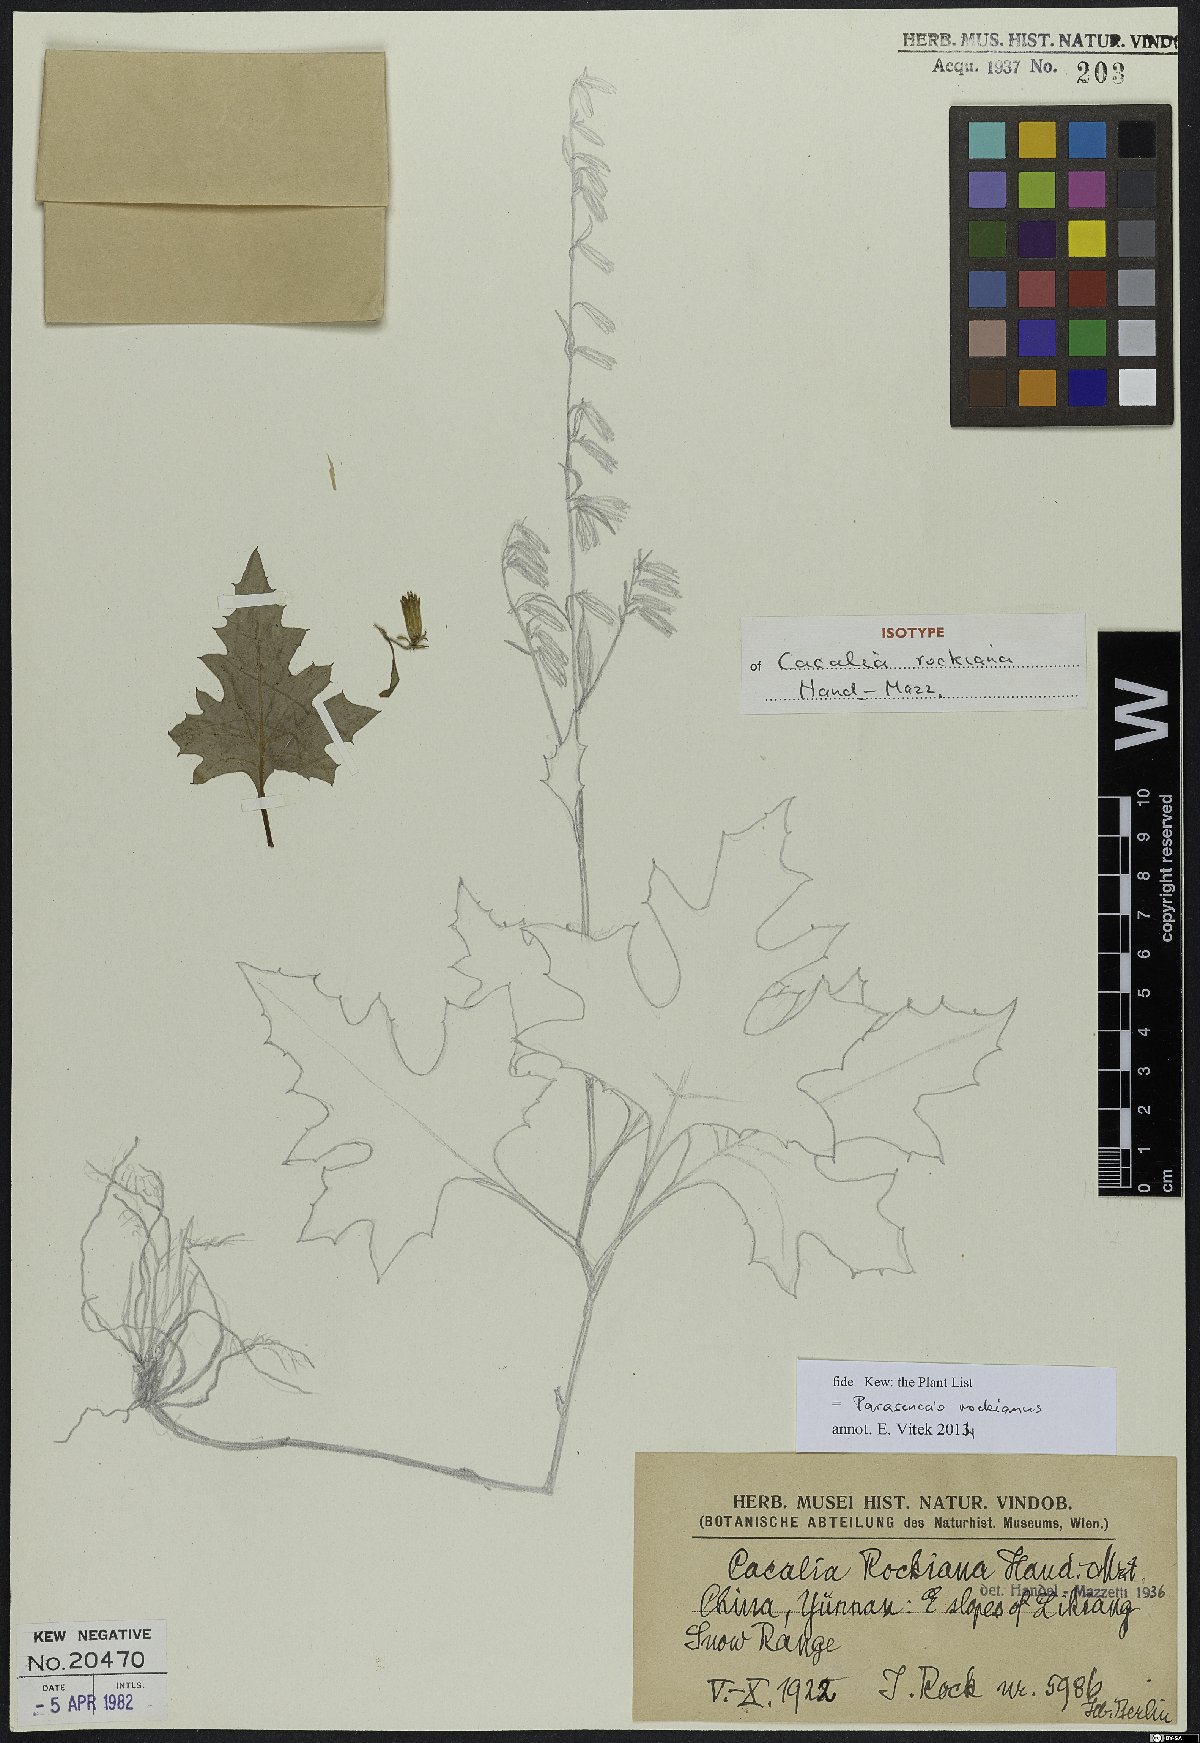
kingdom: Plantae
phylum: Tracheophyta
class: Magnoliopsida
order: Asterales
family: Asteraceae
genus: Parasenecio
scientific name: Parasenecio rockianus
